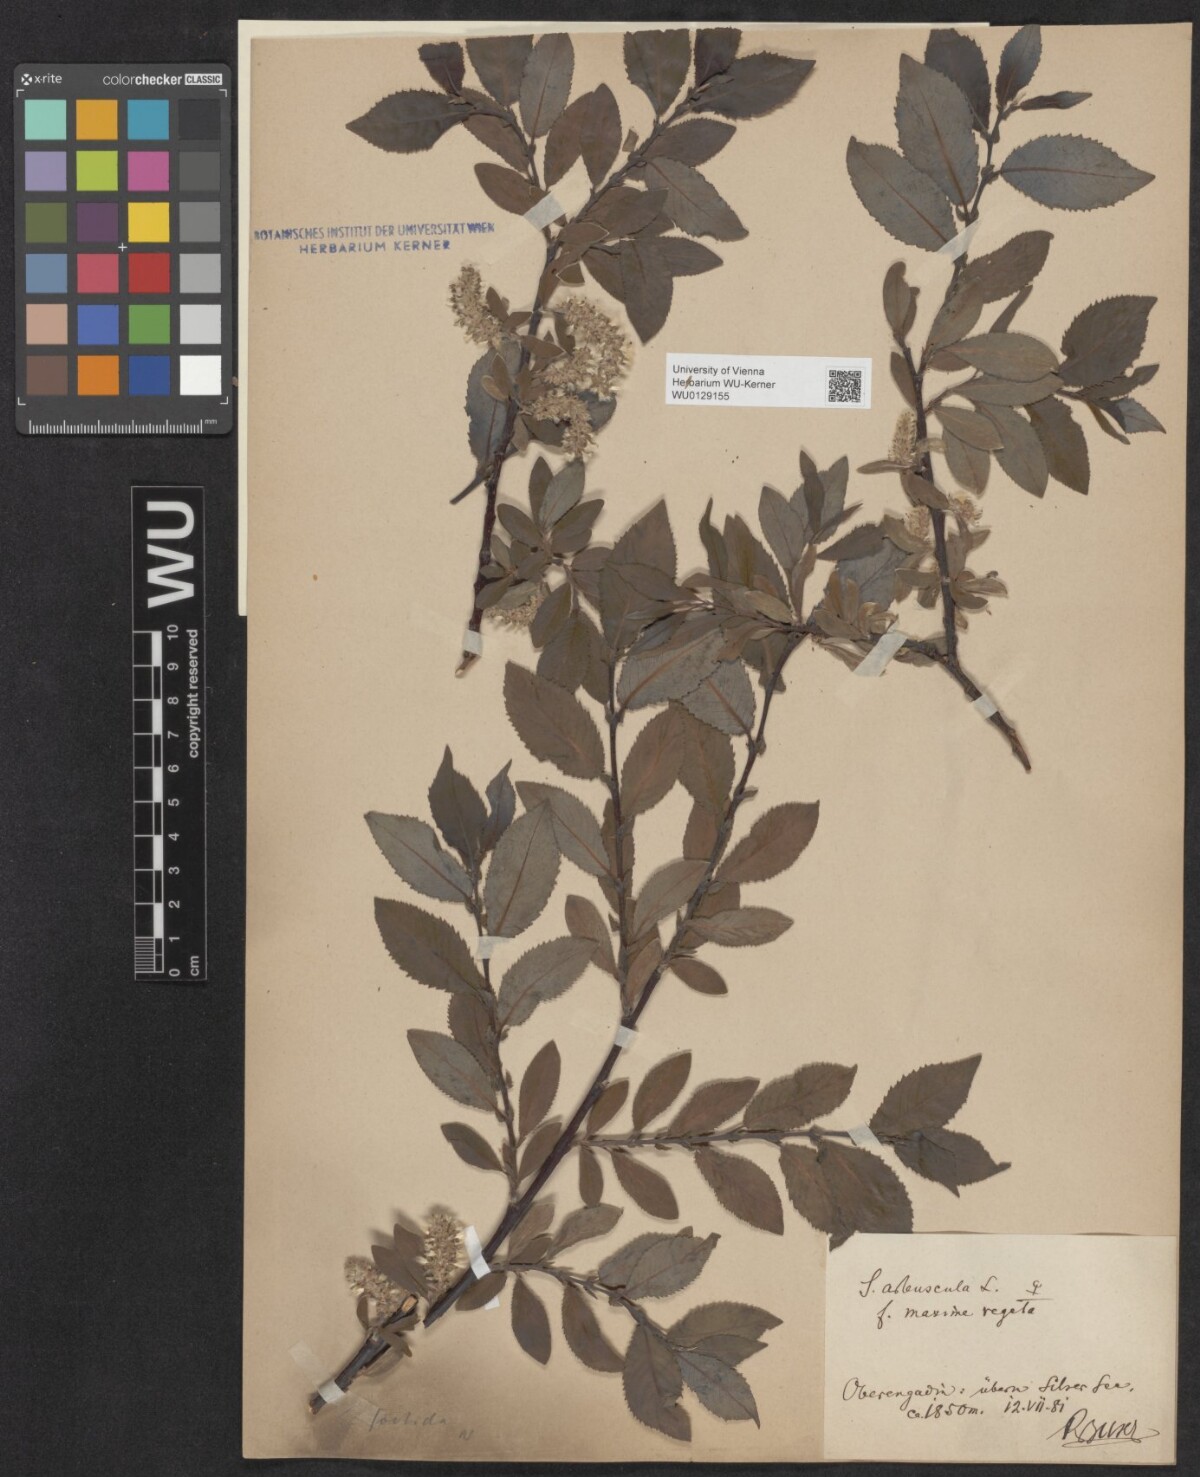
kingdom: Plantae
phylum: Tracheophyta
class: Magnoliopsida
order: Malpighiales
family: Salicaceae
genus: Salix
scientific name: Salix foetida
